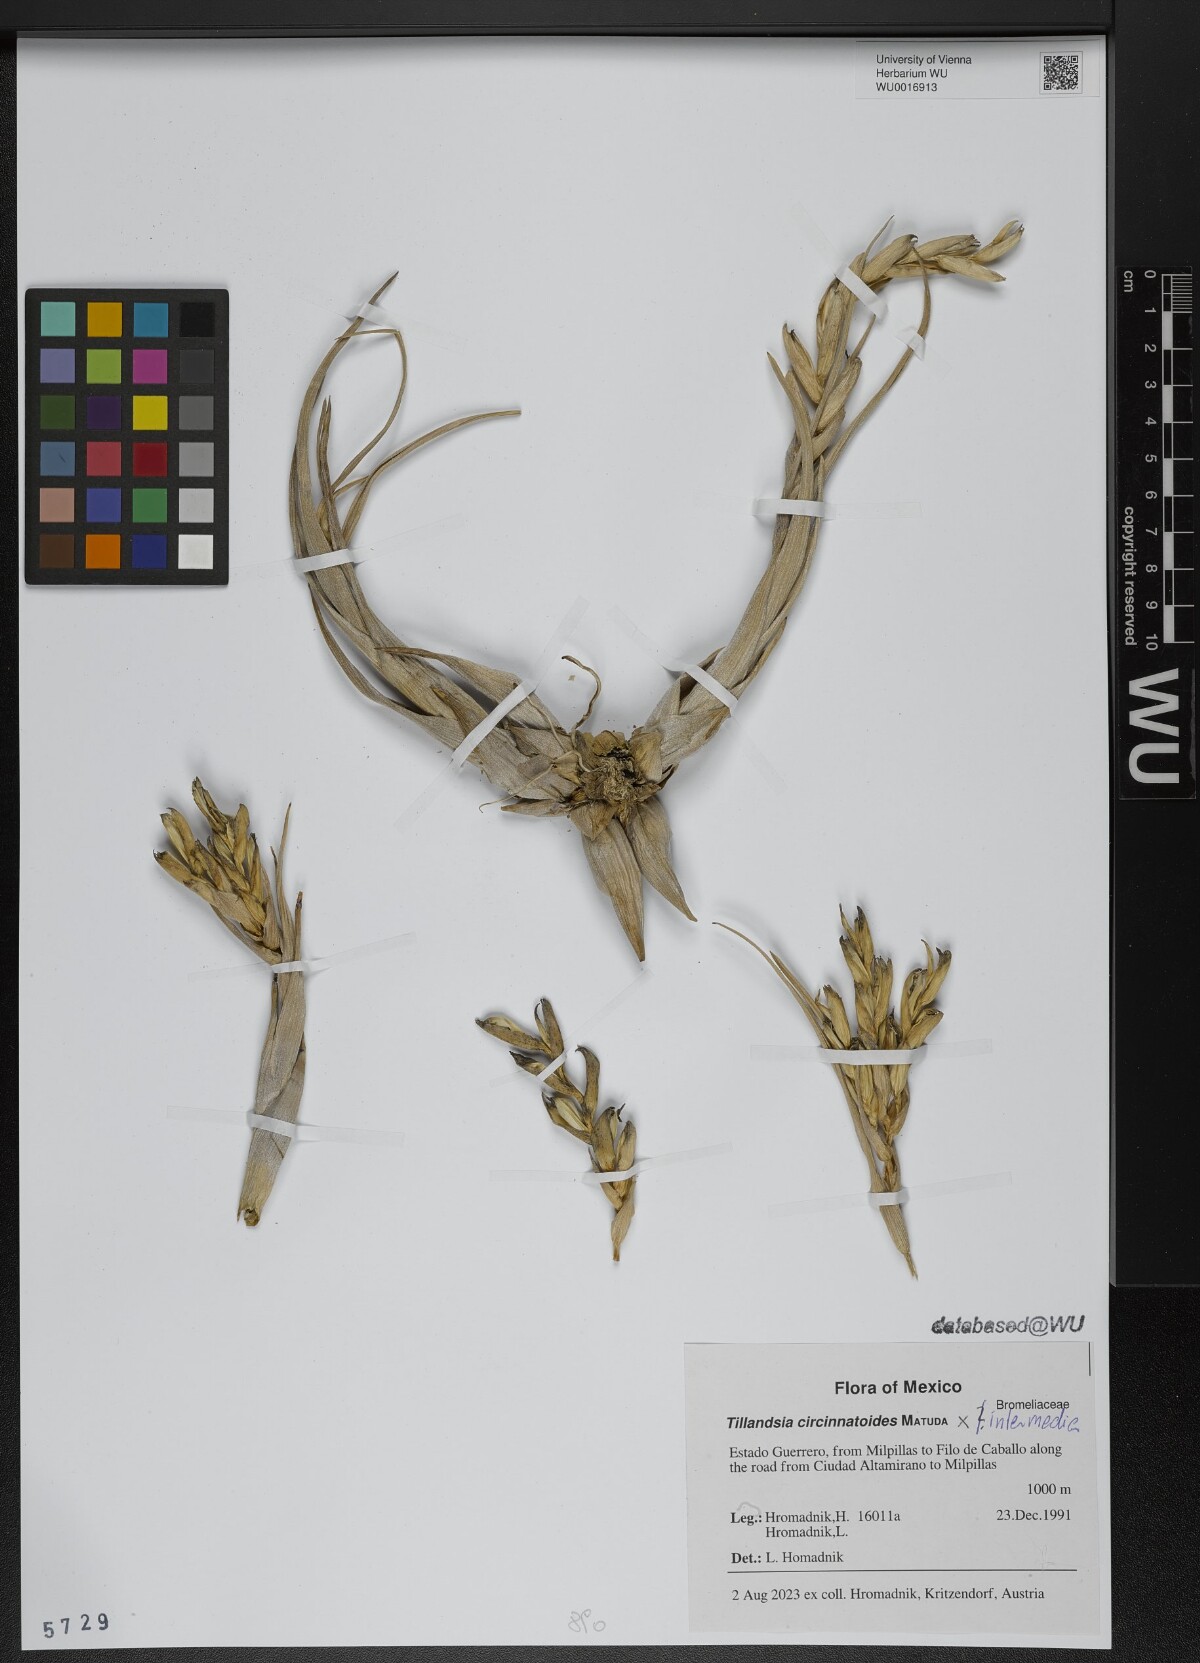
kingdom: Plantae
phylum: Tracheophyta
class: Liliopsida
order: Poales
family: Bromeliaceae
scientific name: Bromeliaceae
